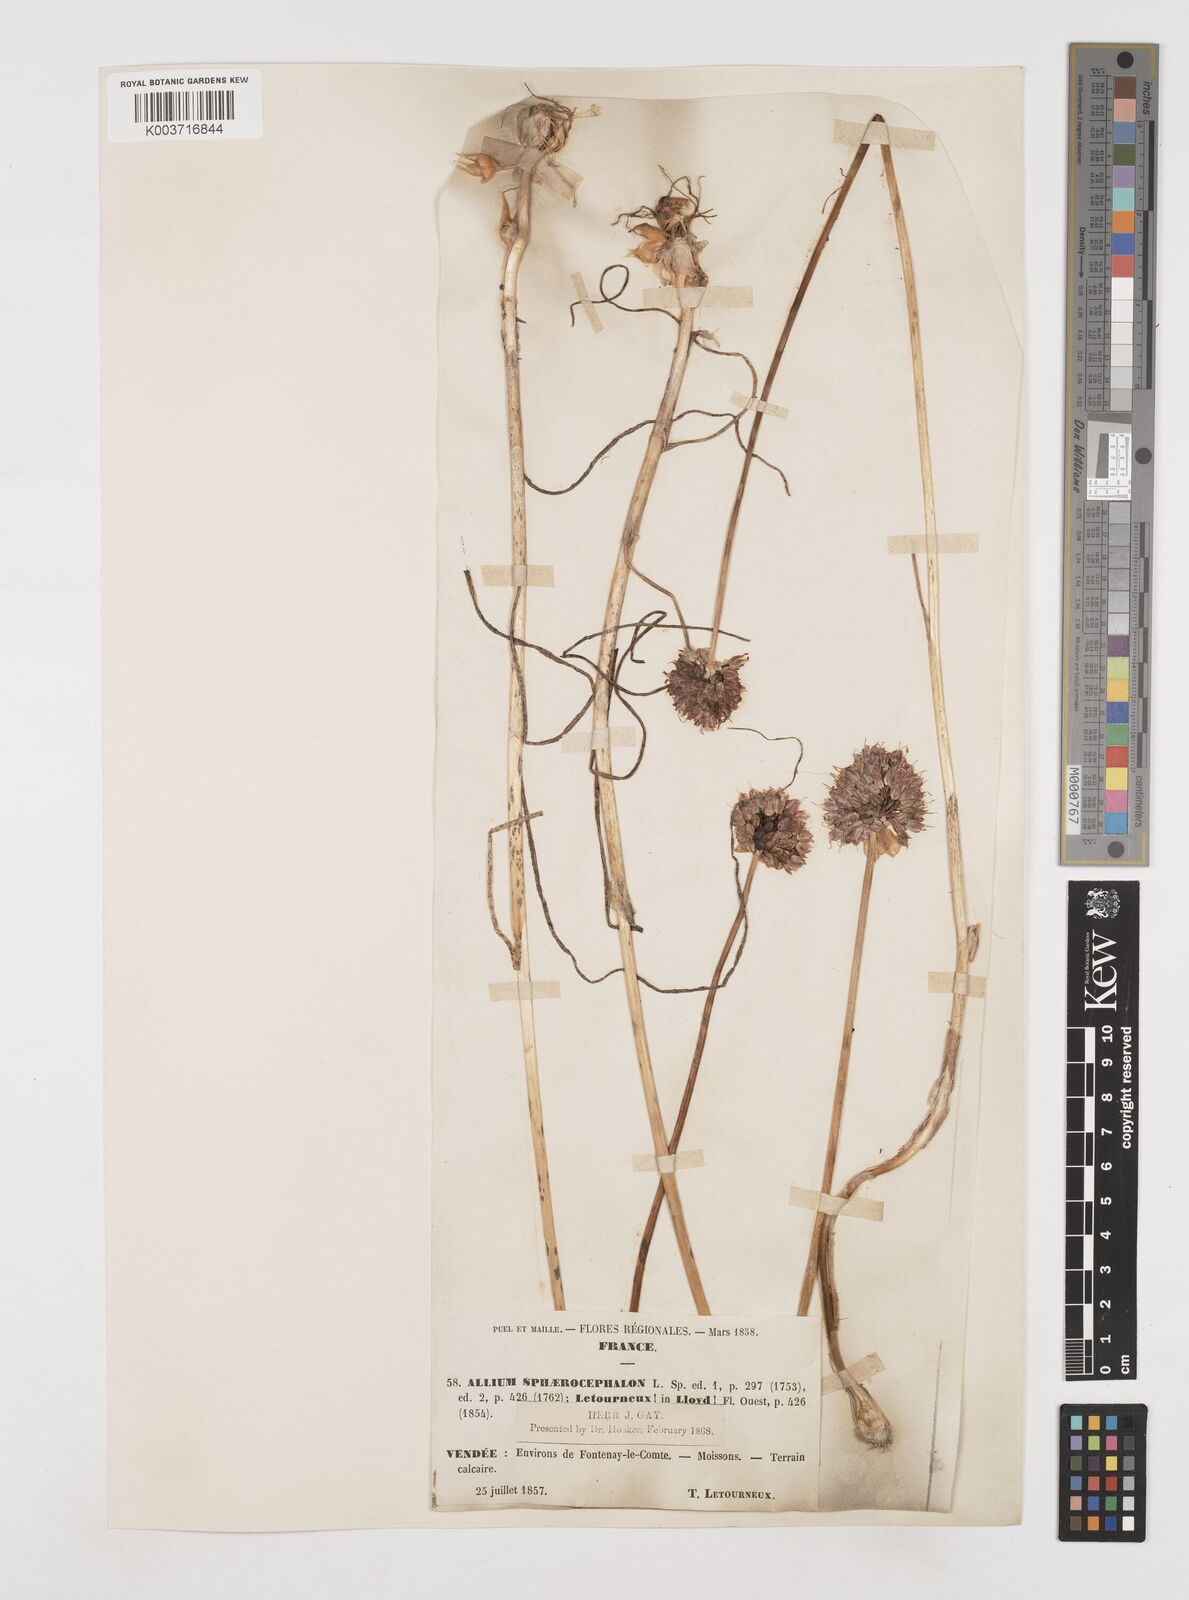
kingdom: Plantae
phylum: Tracheophyta
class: Liliopsida
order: Asparagales
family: Amaryllidaceae
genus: Allium
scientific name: Allium sphaerocephalon
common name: Round-headed leek
